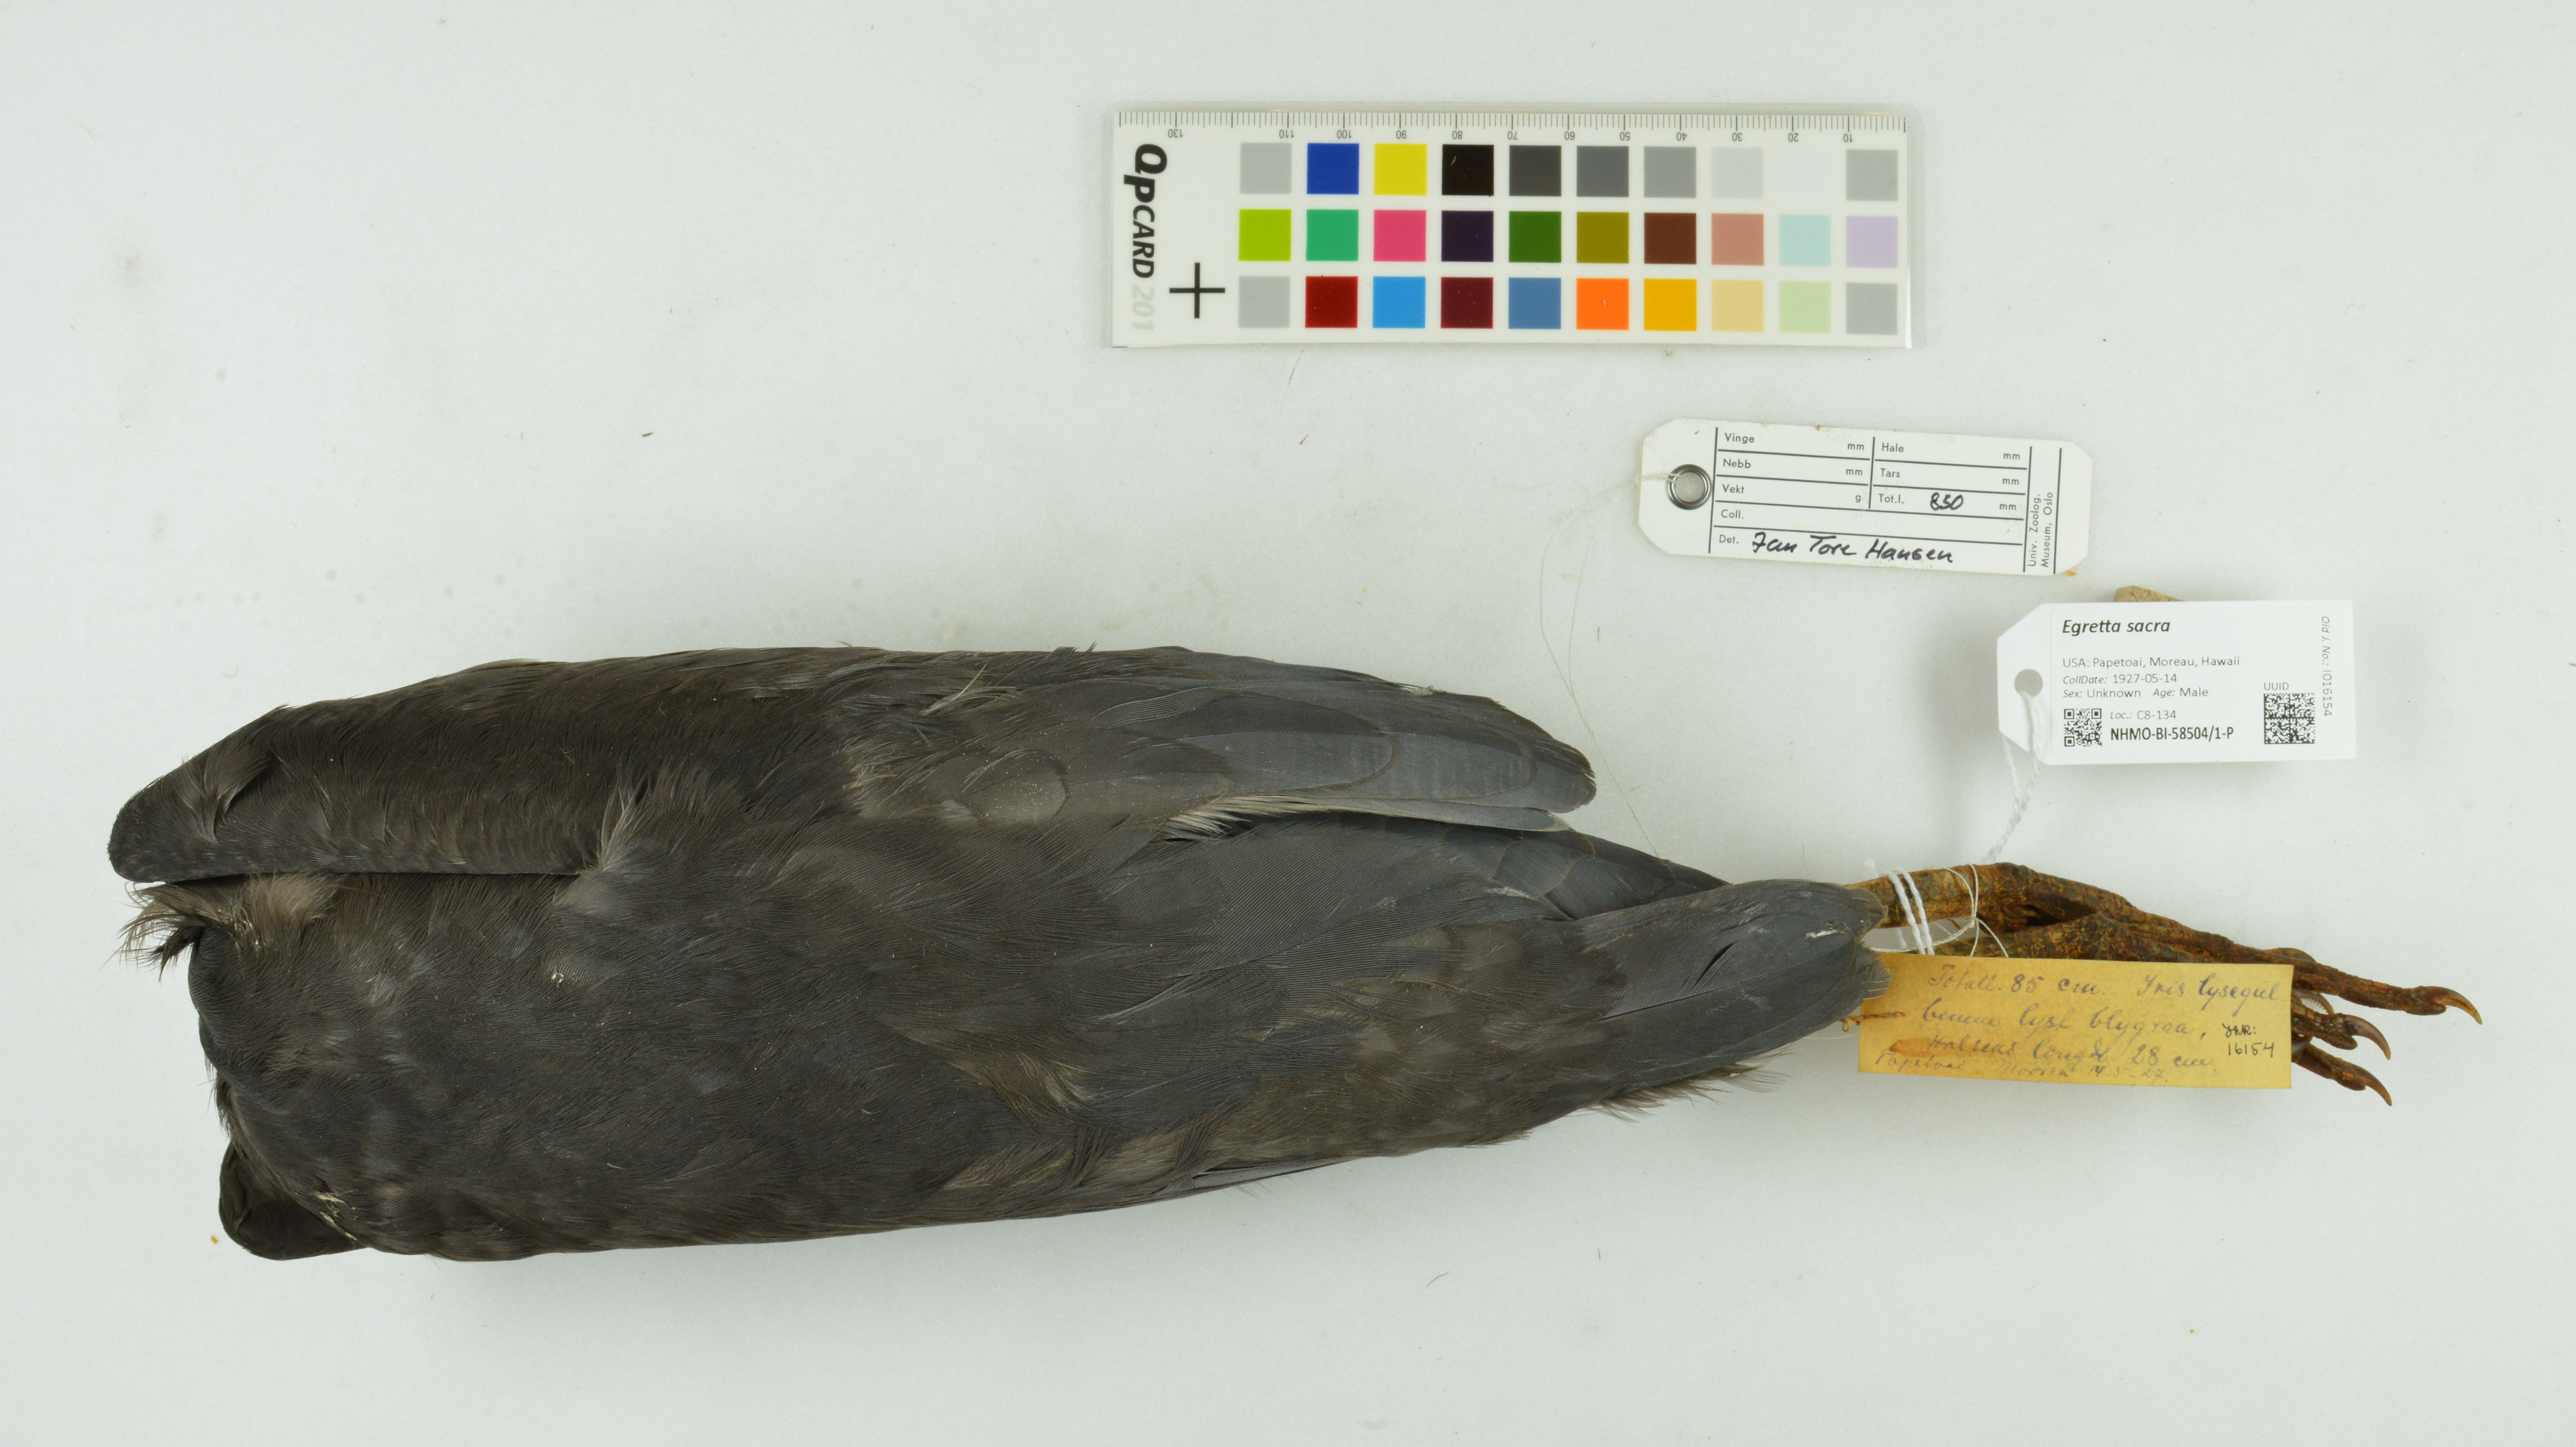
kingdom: Animalia
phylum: Chordata
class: Aves
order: Pelecaniformes
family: Ardeidae
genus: Egretta
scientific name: Egretta sacra
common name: Pacific reef heron
